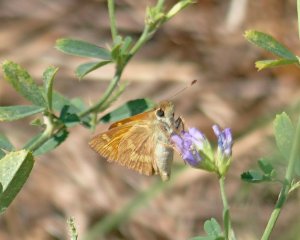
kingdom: Animalia
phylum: Arthropoda
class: Insecta
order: Lepidoptera
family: Hesperiidae
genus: Ochlodes
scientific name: Ochlodes sylvanoides
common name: Woodland Skipper
